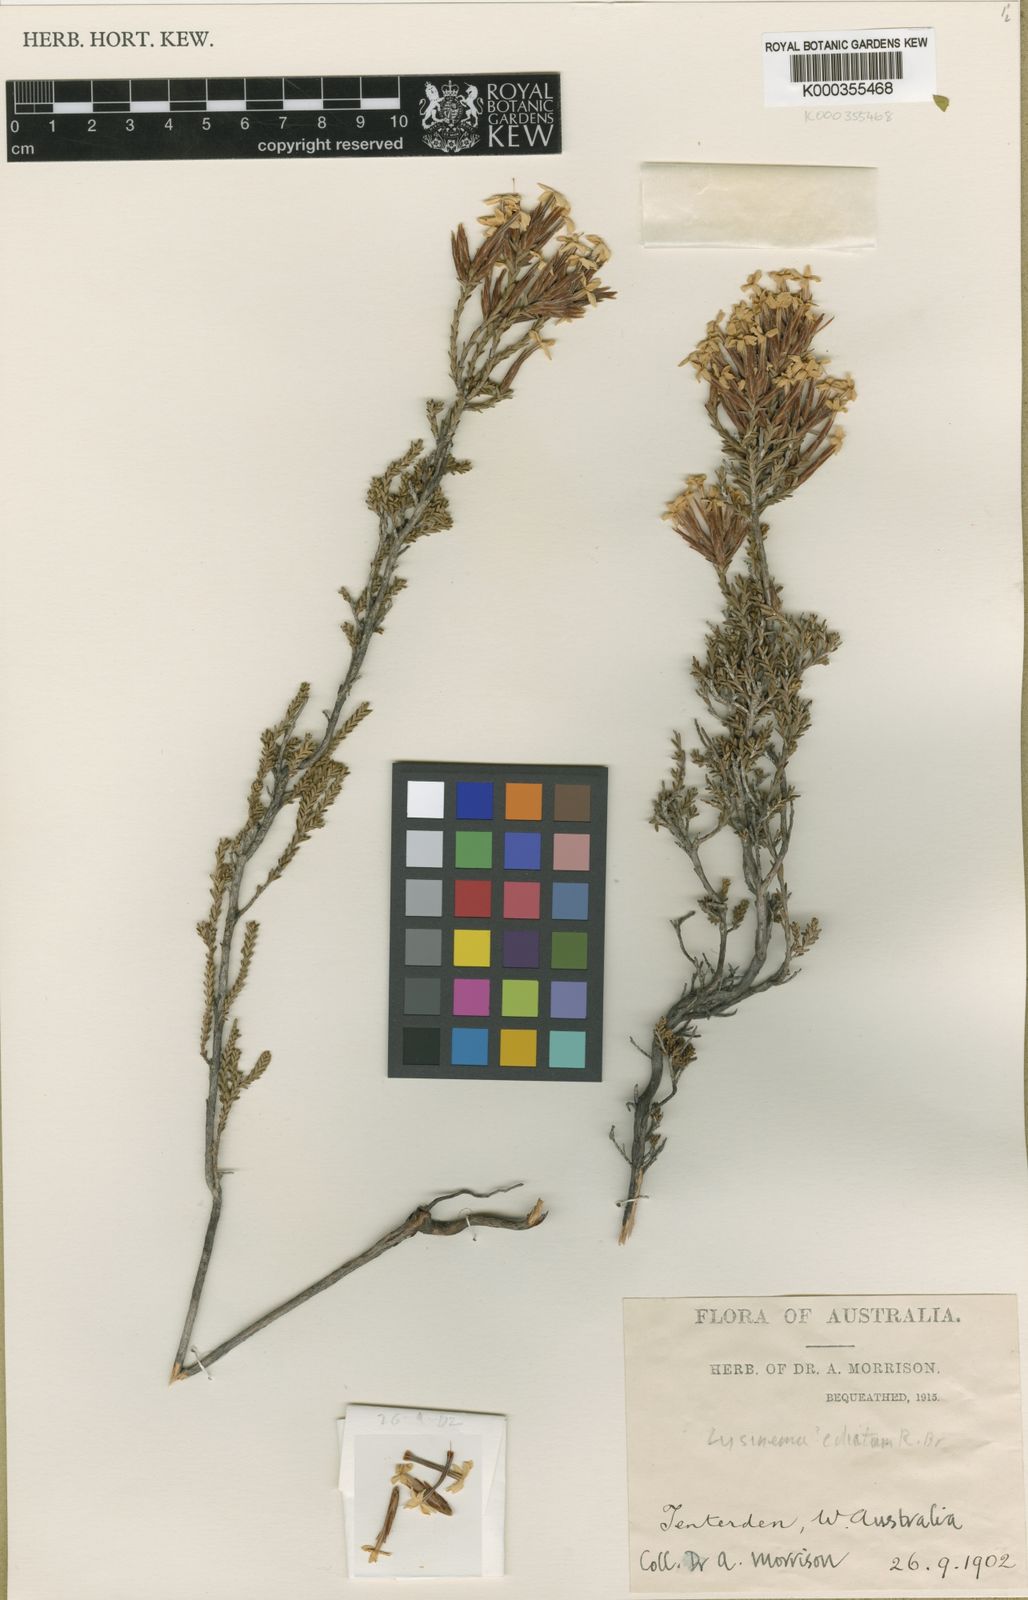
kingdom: Plantae
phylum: Tracheophyta
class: Magnoliopsida
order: Ericales
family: Ericaceae
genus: Lysinema
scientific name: Lysinema ciliatum
